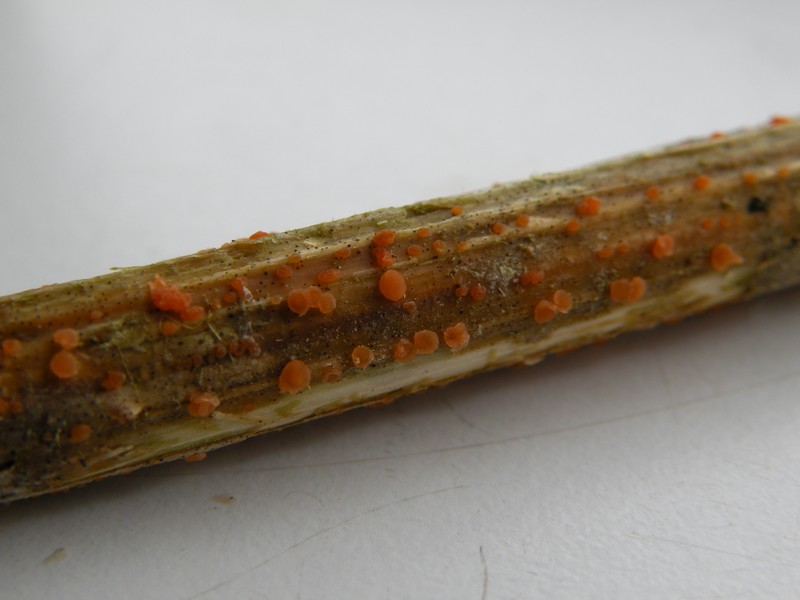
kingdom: Fungi
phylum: Ascomycota
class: Leotiomycetes
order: Helotiales
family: Calloriaceae
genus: Calloria
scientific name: Calloria urticae
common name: nælde-orangeskive
